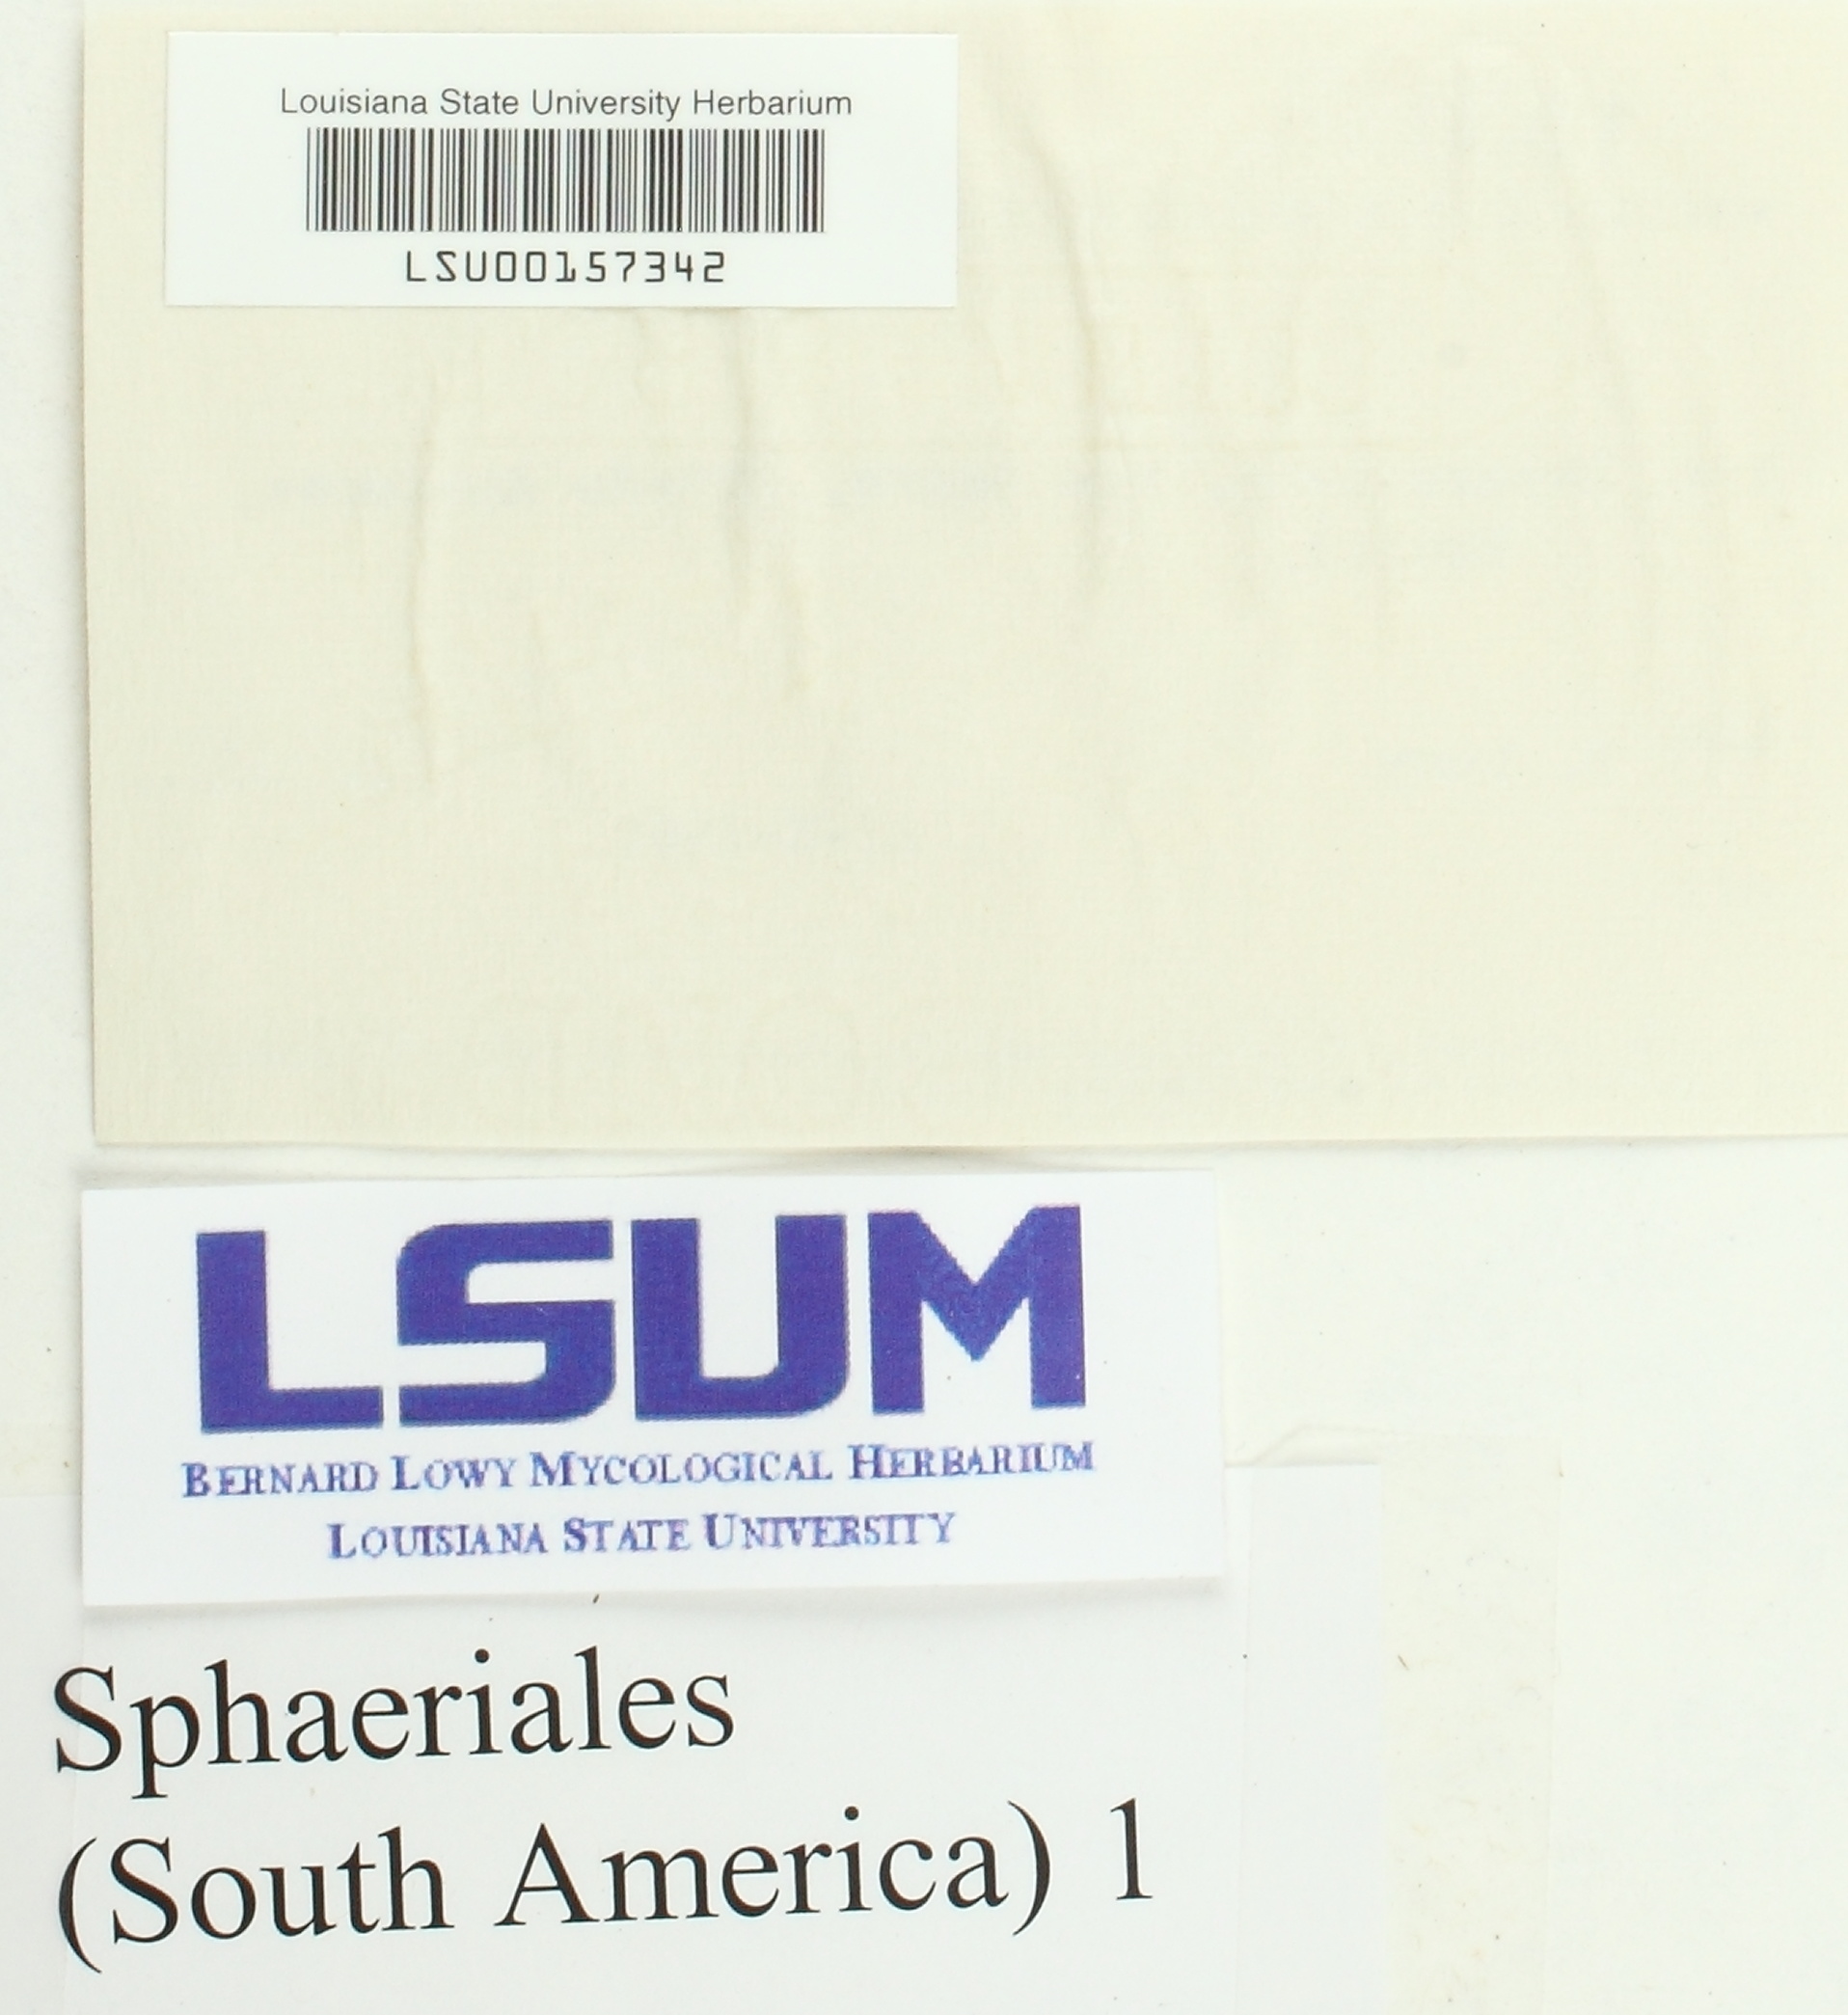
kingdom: Fungi
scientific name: Fungi
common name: Fungi
